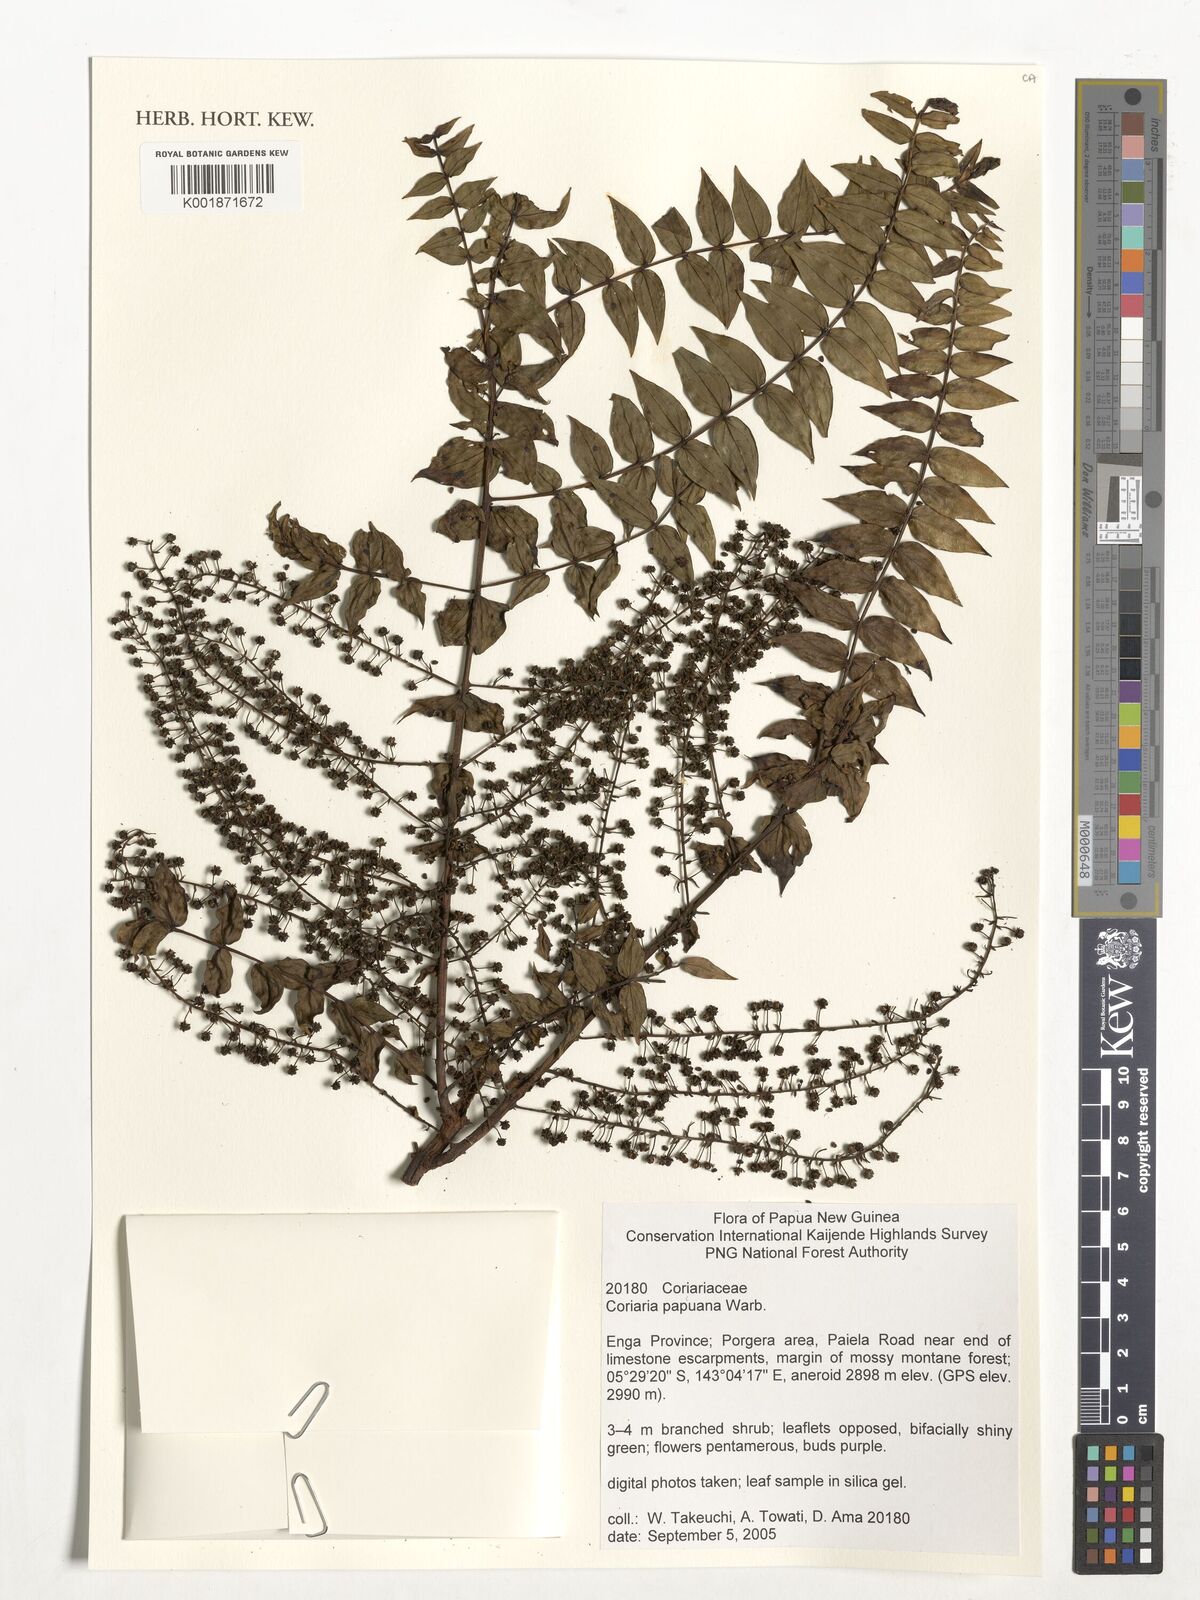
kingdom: Plantae
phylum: Tracheophyta
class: Magnoliopsida
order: Cucurbitales
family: Coriariaceae
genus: Coriaria
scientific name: Coriaria ruscifolia
